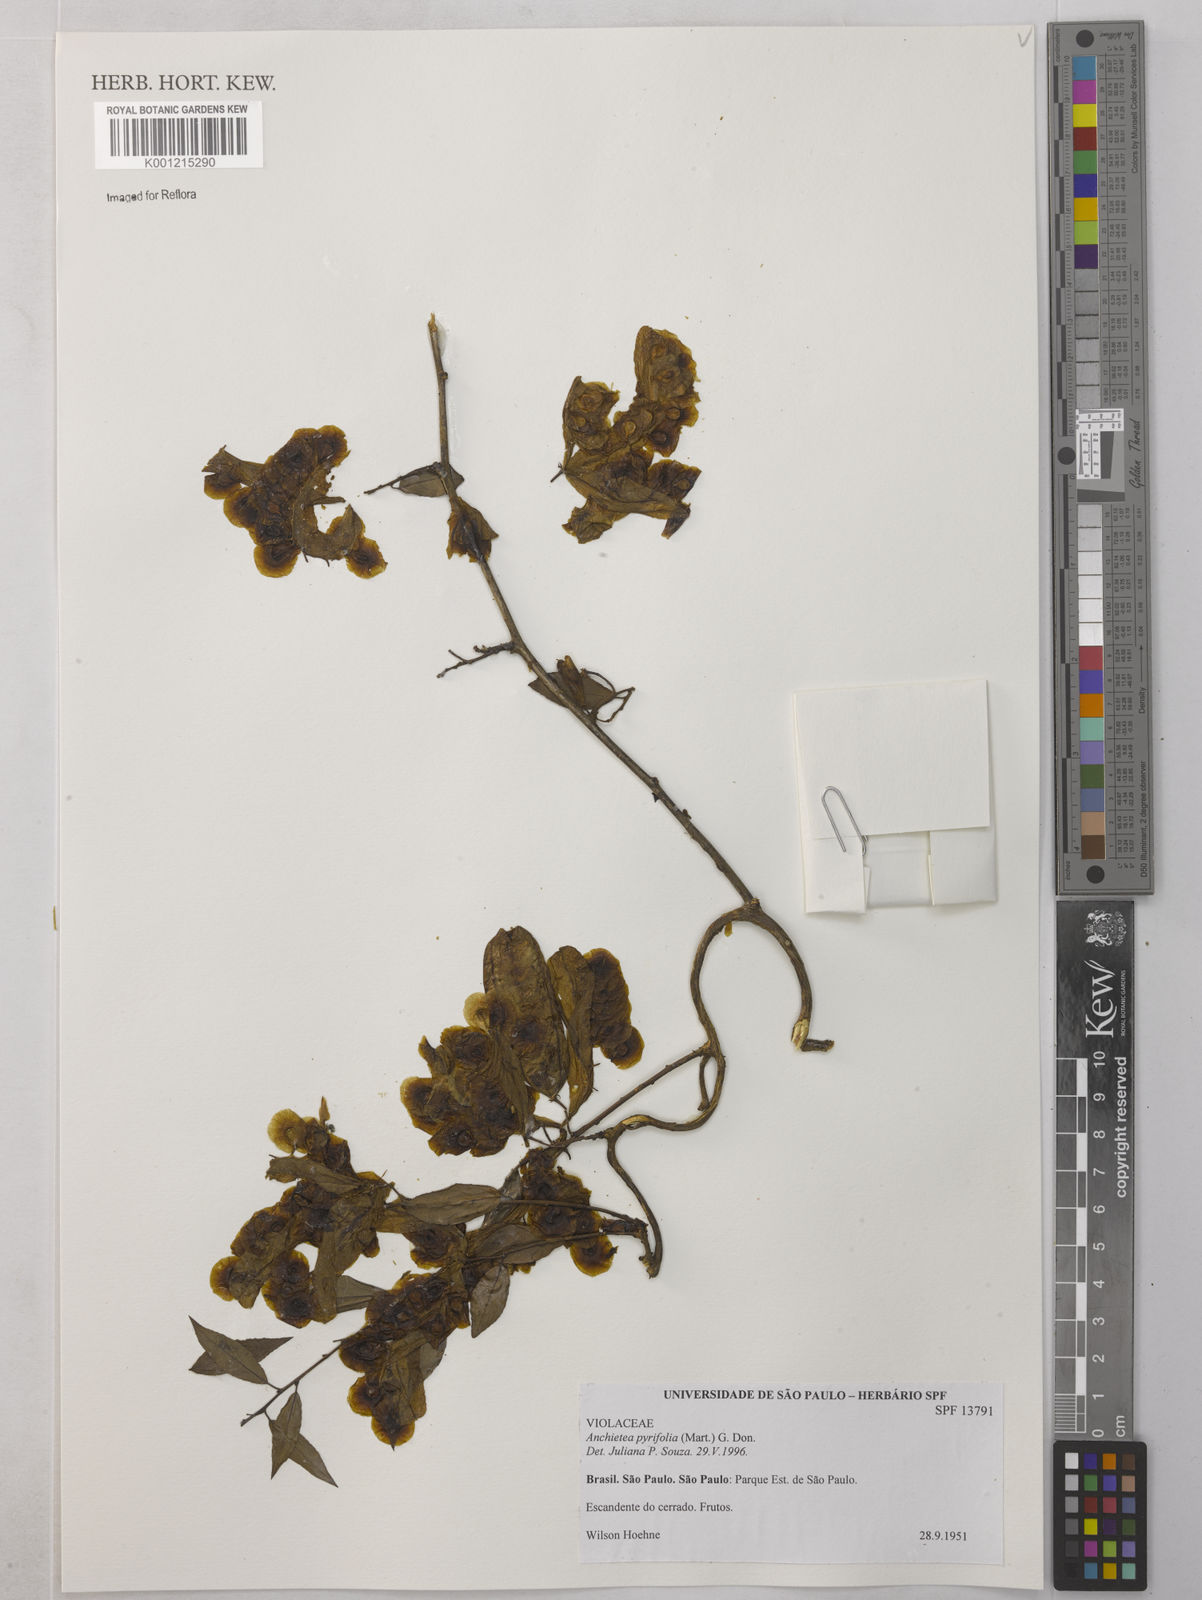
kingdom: Plantae
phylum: Tracheophyta
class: Magnoliopsida
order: Malpighiales
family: Violaceae
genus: Anchietea
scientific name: Anchietea pyrifolia
